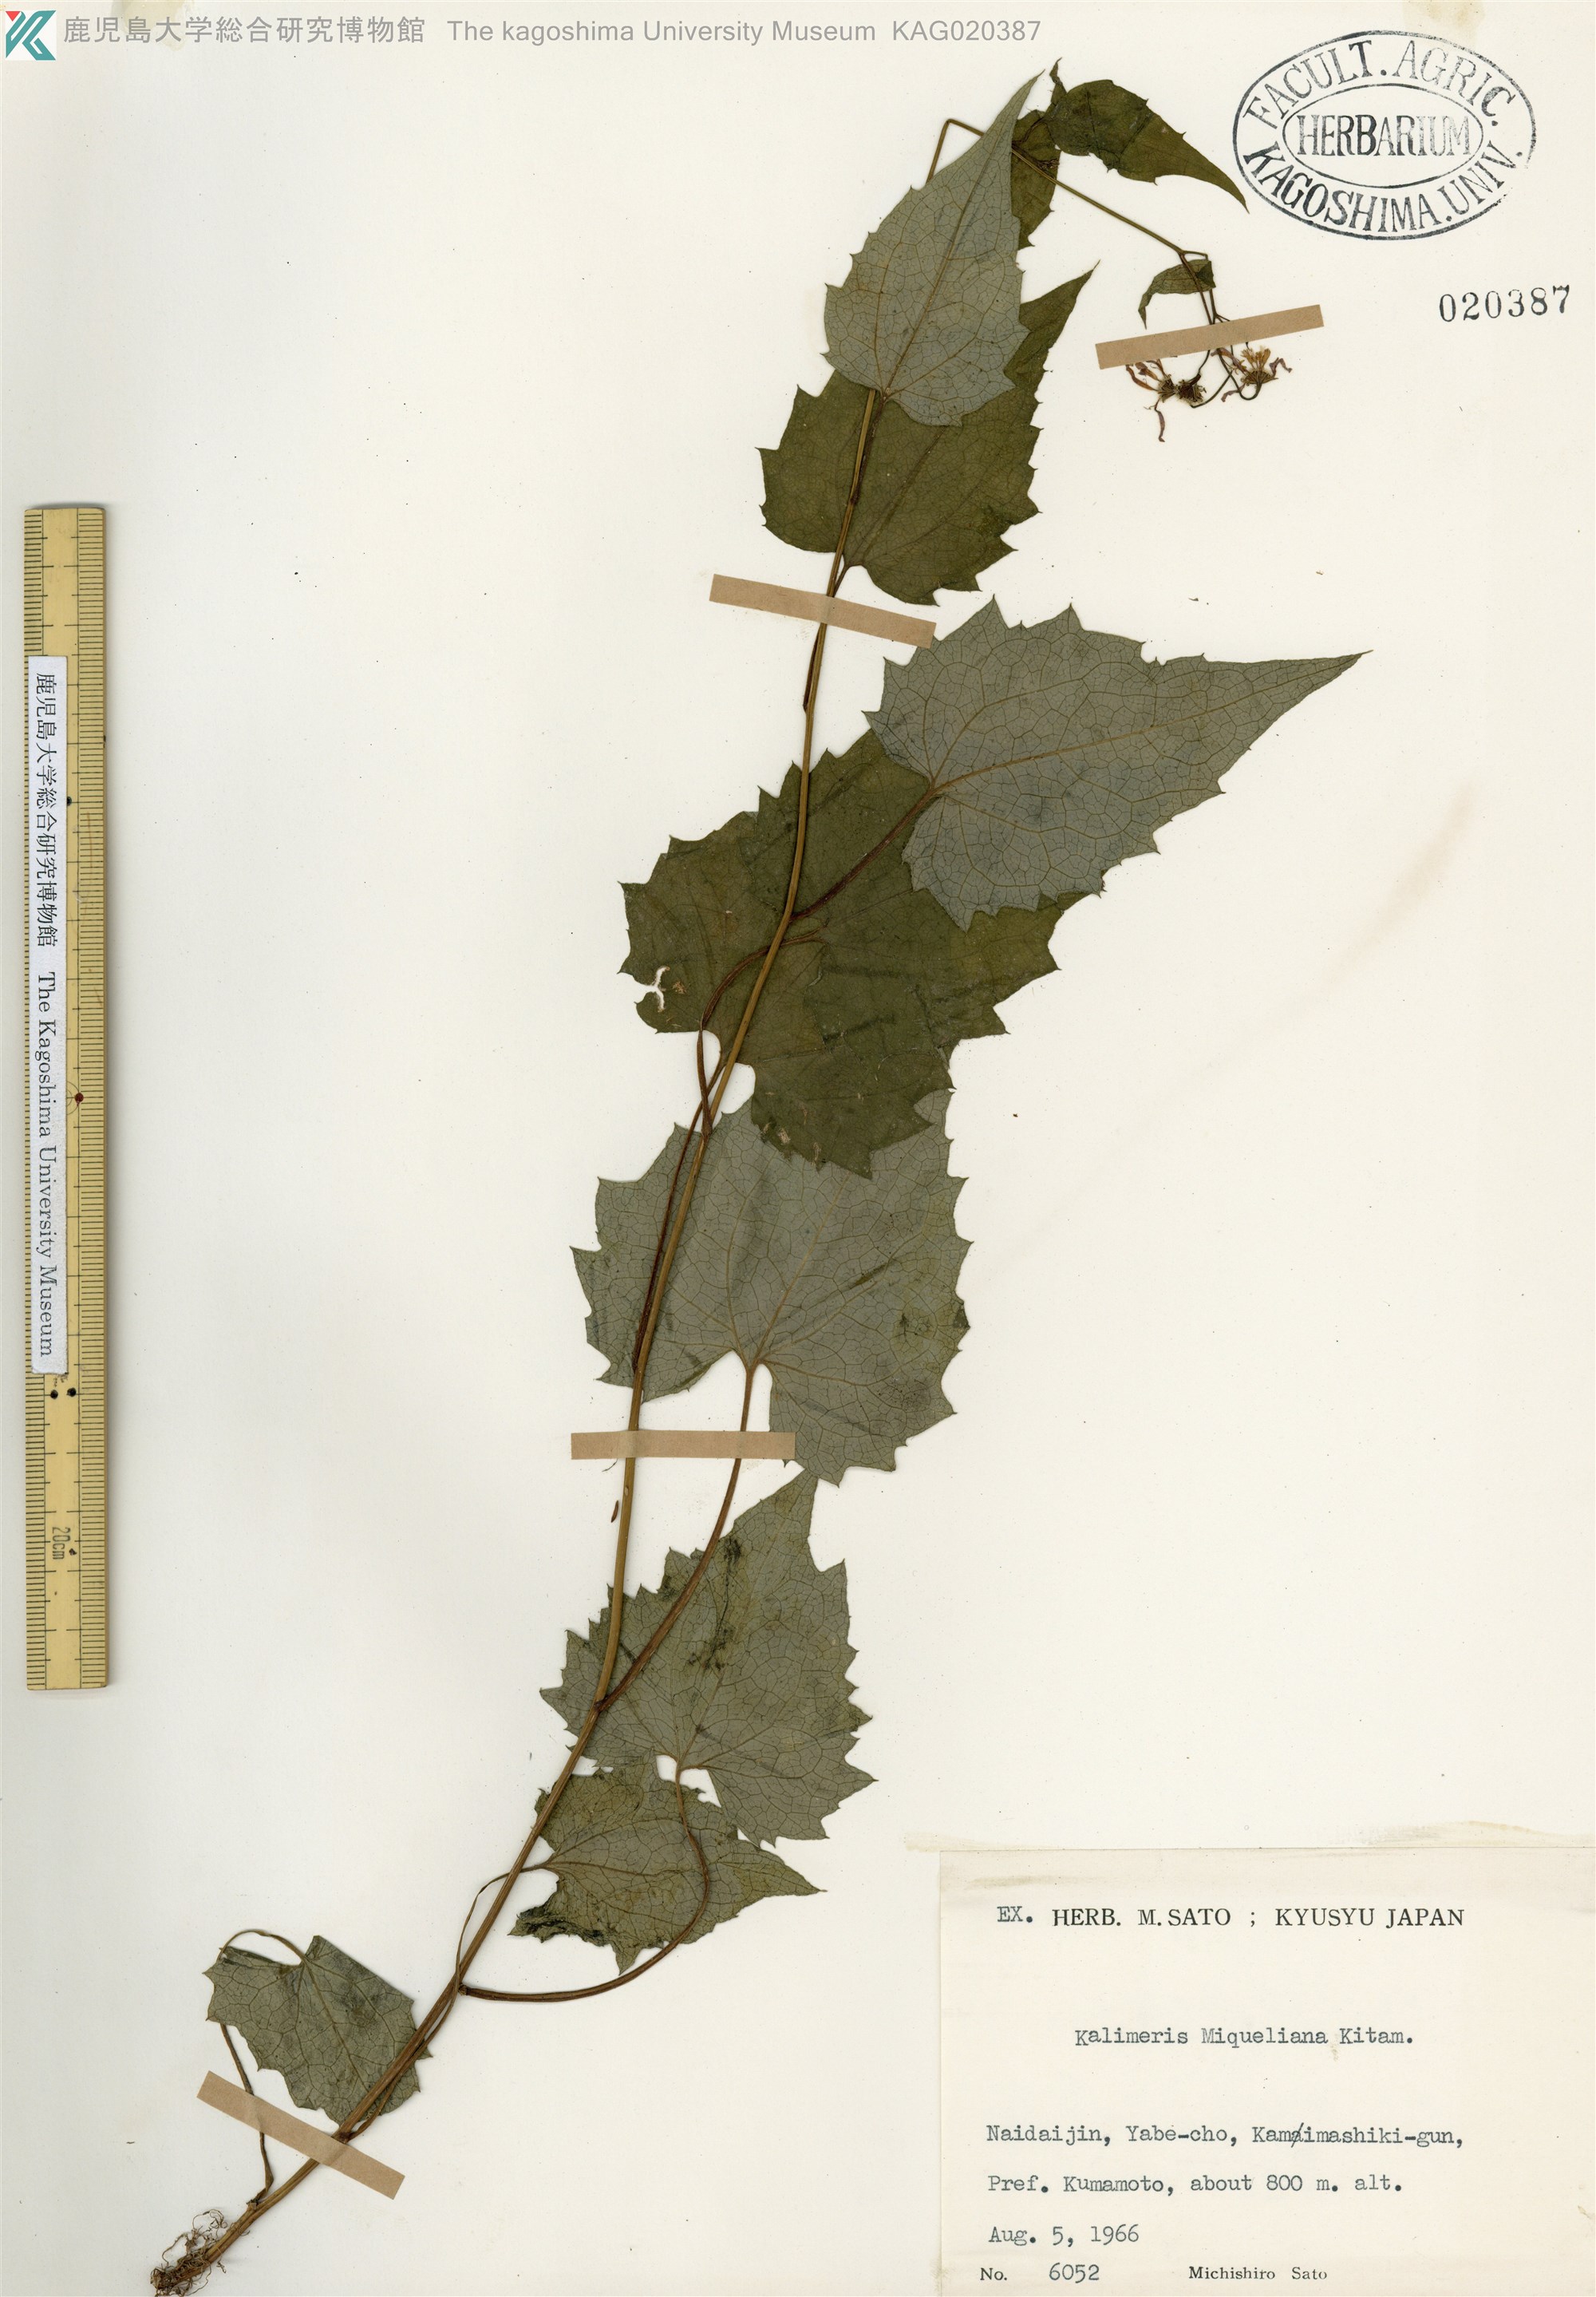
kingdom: Plantae
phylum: Tracheophyta
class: Magnoliopsida
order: Asterales
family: Asteraceae
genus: Cardiagyris
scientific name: Cardiagyris miquelianus
